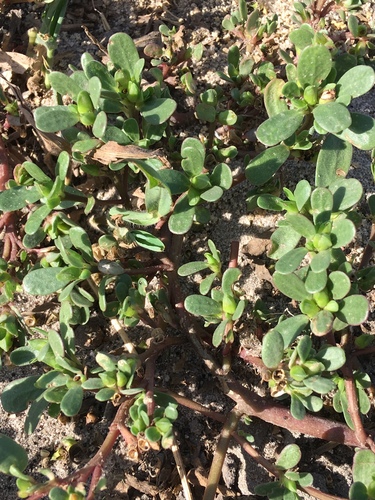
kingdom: Plantae
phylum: Tracheophyta
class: Magnoliopsida
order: Caryophyllales
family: Portulacaceae
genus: Portulaca
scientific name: Portulaca oleracea
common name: Common purslane
